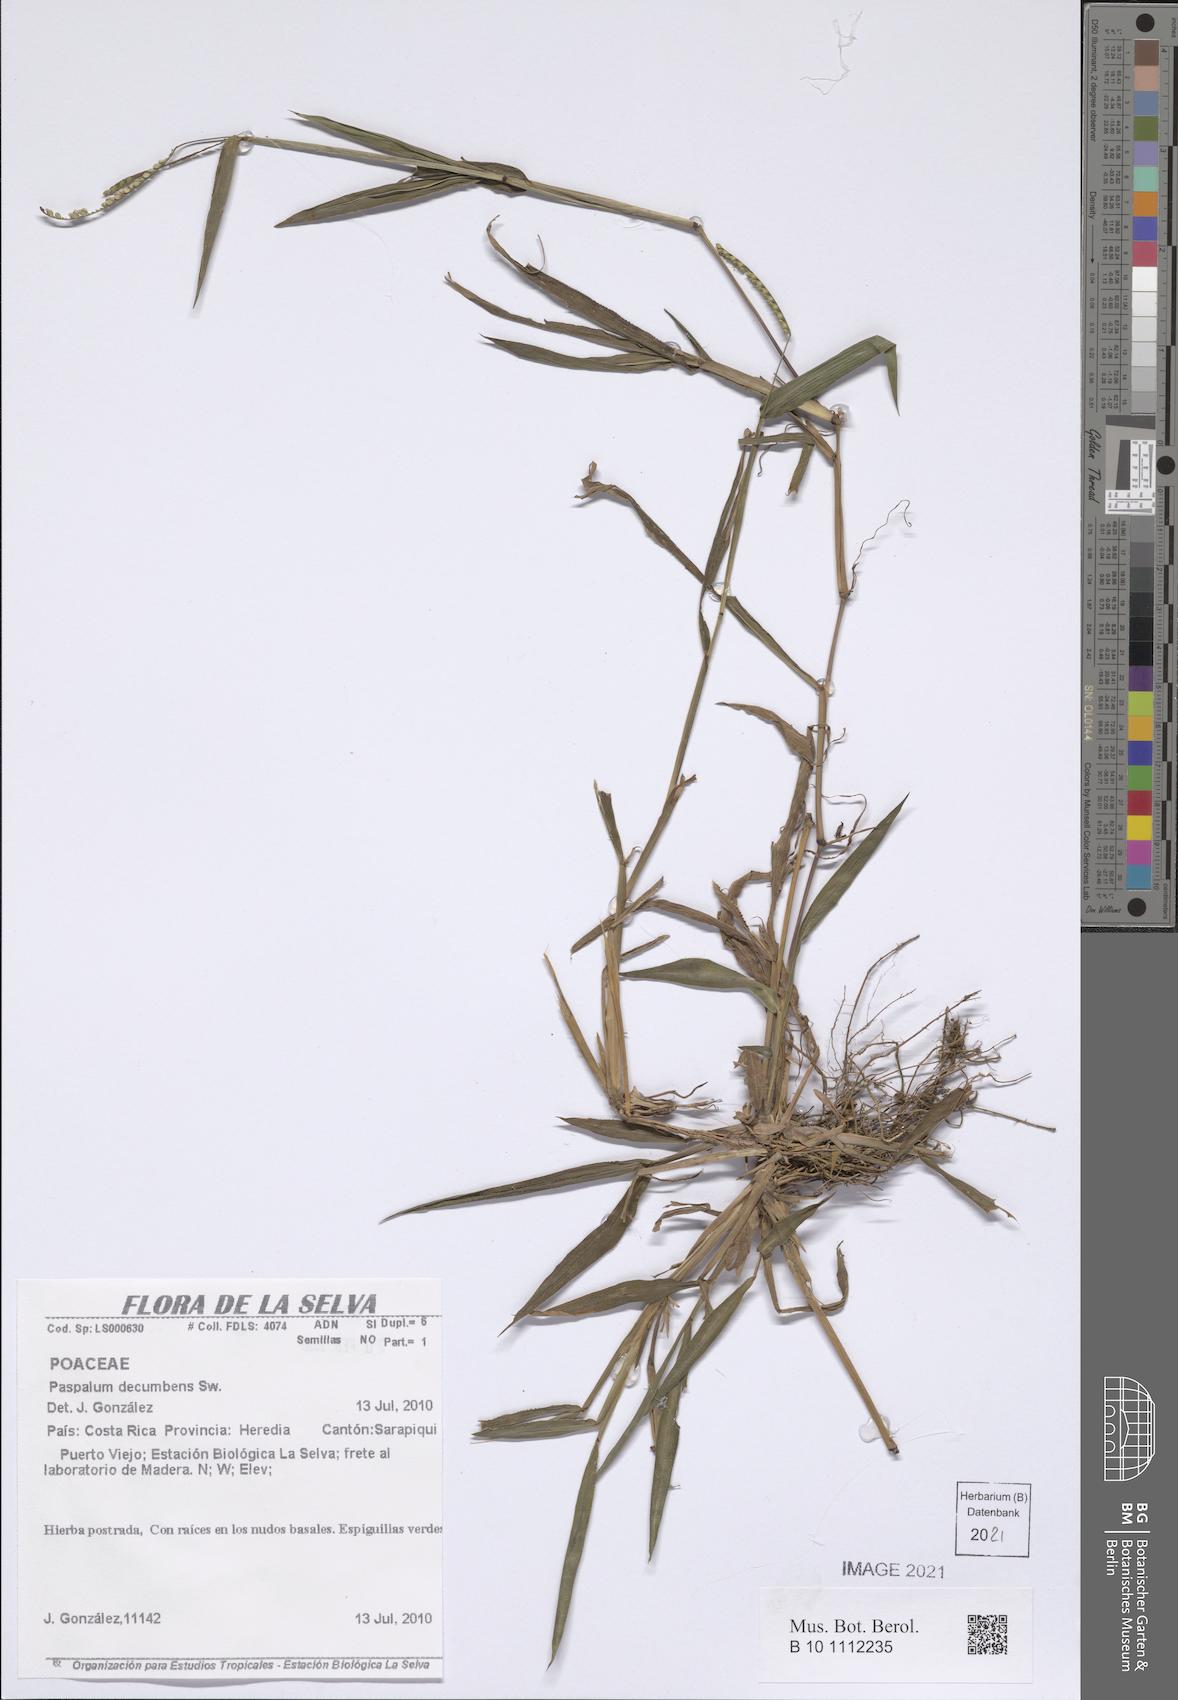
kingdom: Plantae
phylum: Tracheophyta
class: Liliopsida
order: Poales
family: Poaceae
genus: Paspalum
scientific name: Paspalum decumbens
